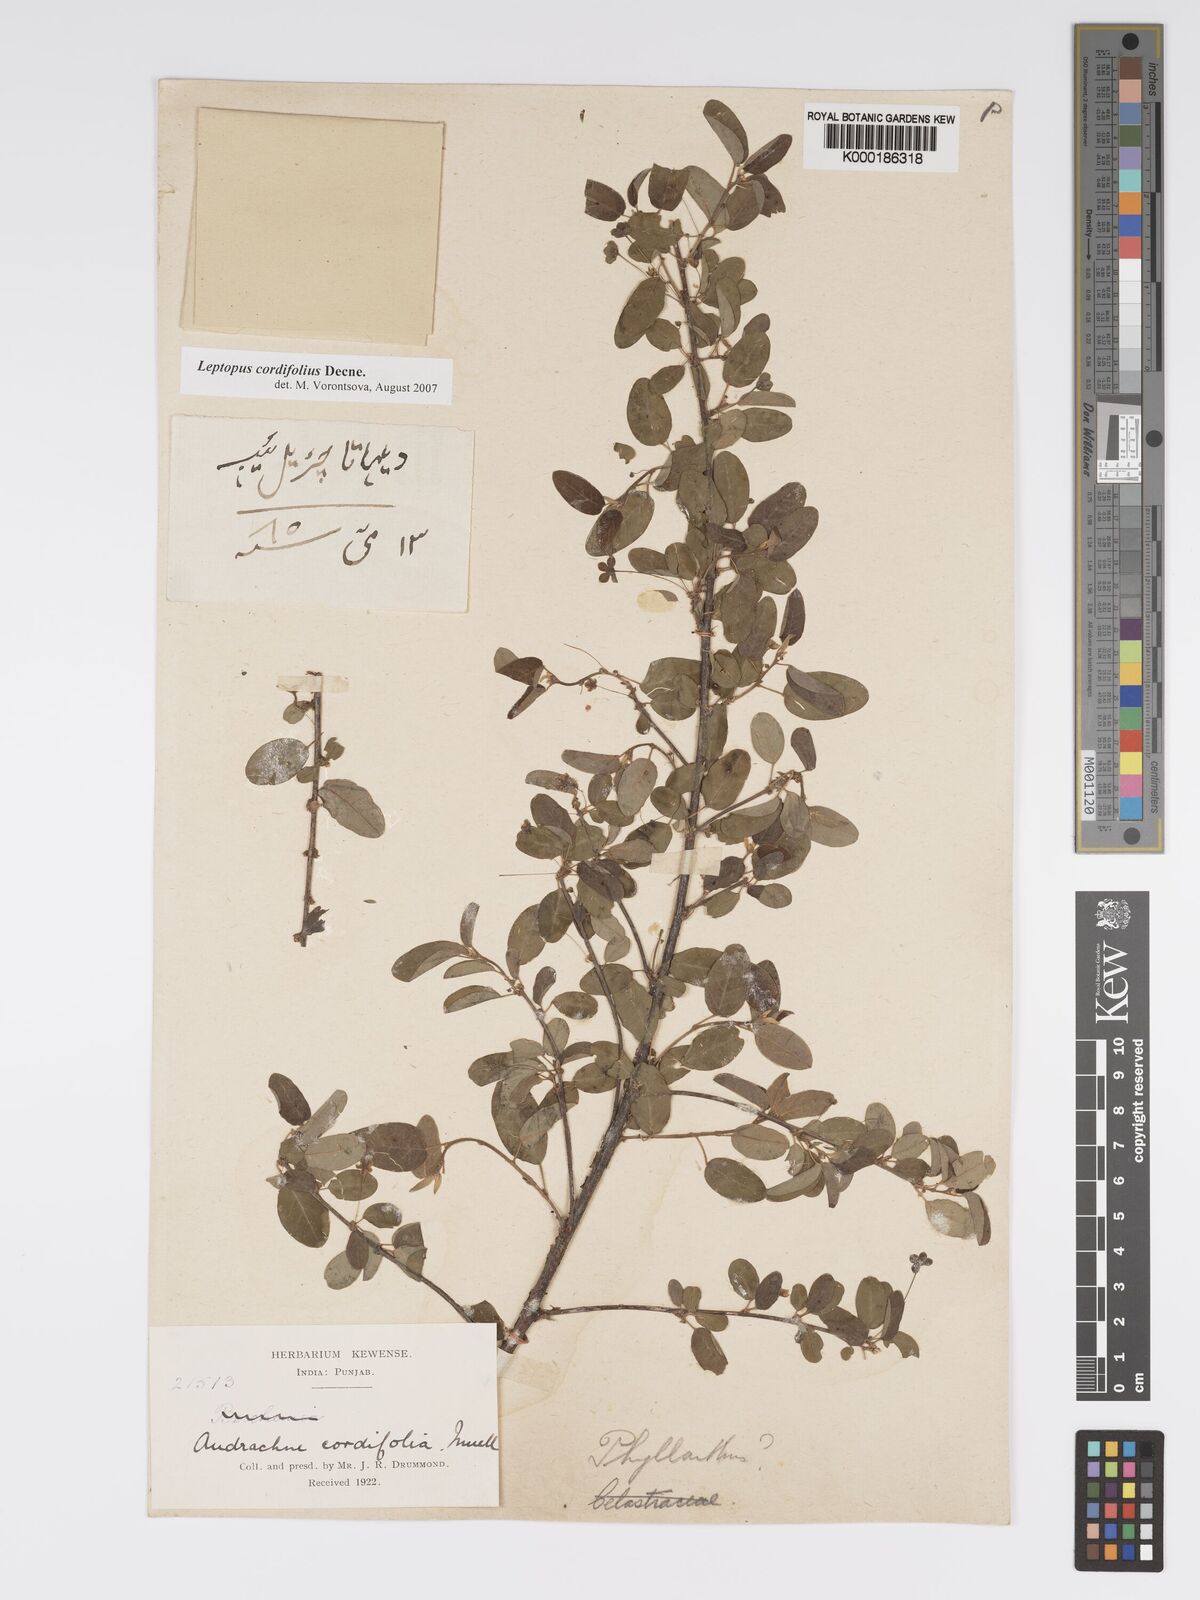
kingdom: Plantae
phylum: Tracheophyta
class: Magnoliopsida
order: Malpighiales
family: Phyllanthaceae
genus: Leptopus
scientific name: Leptopus cordifolius
